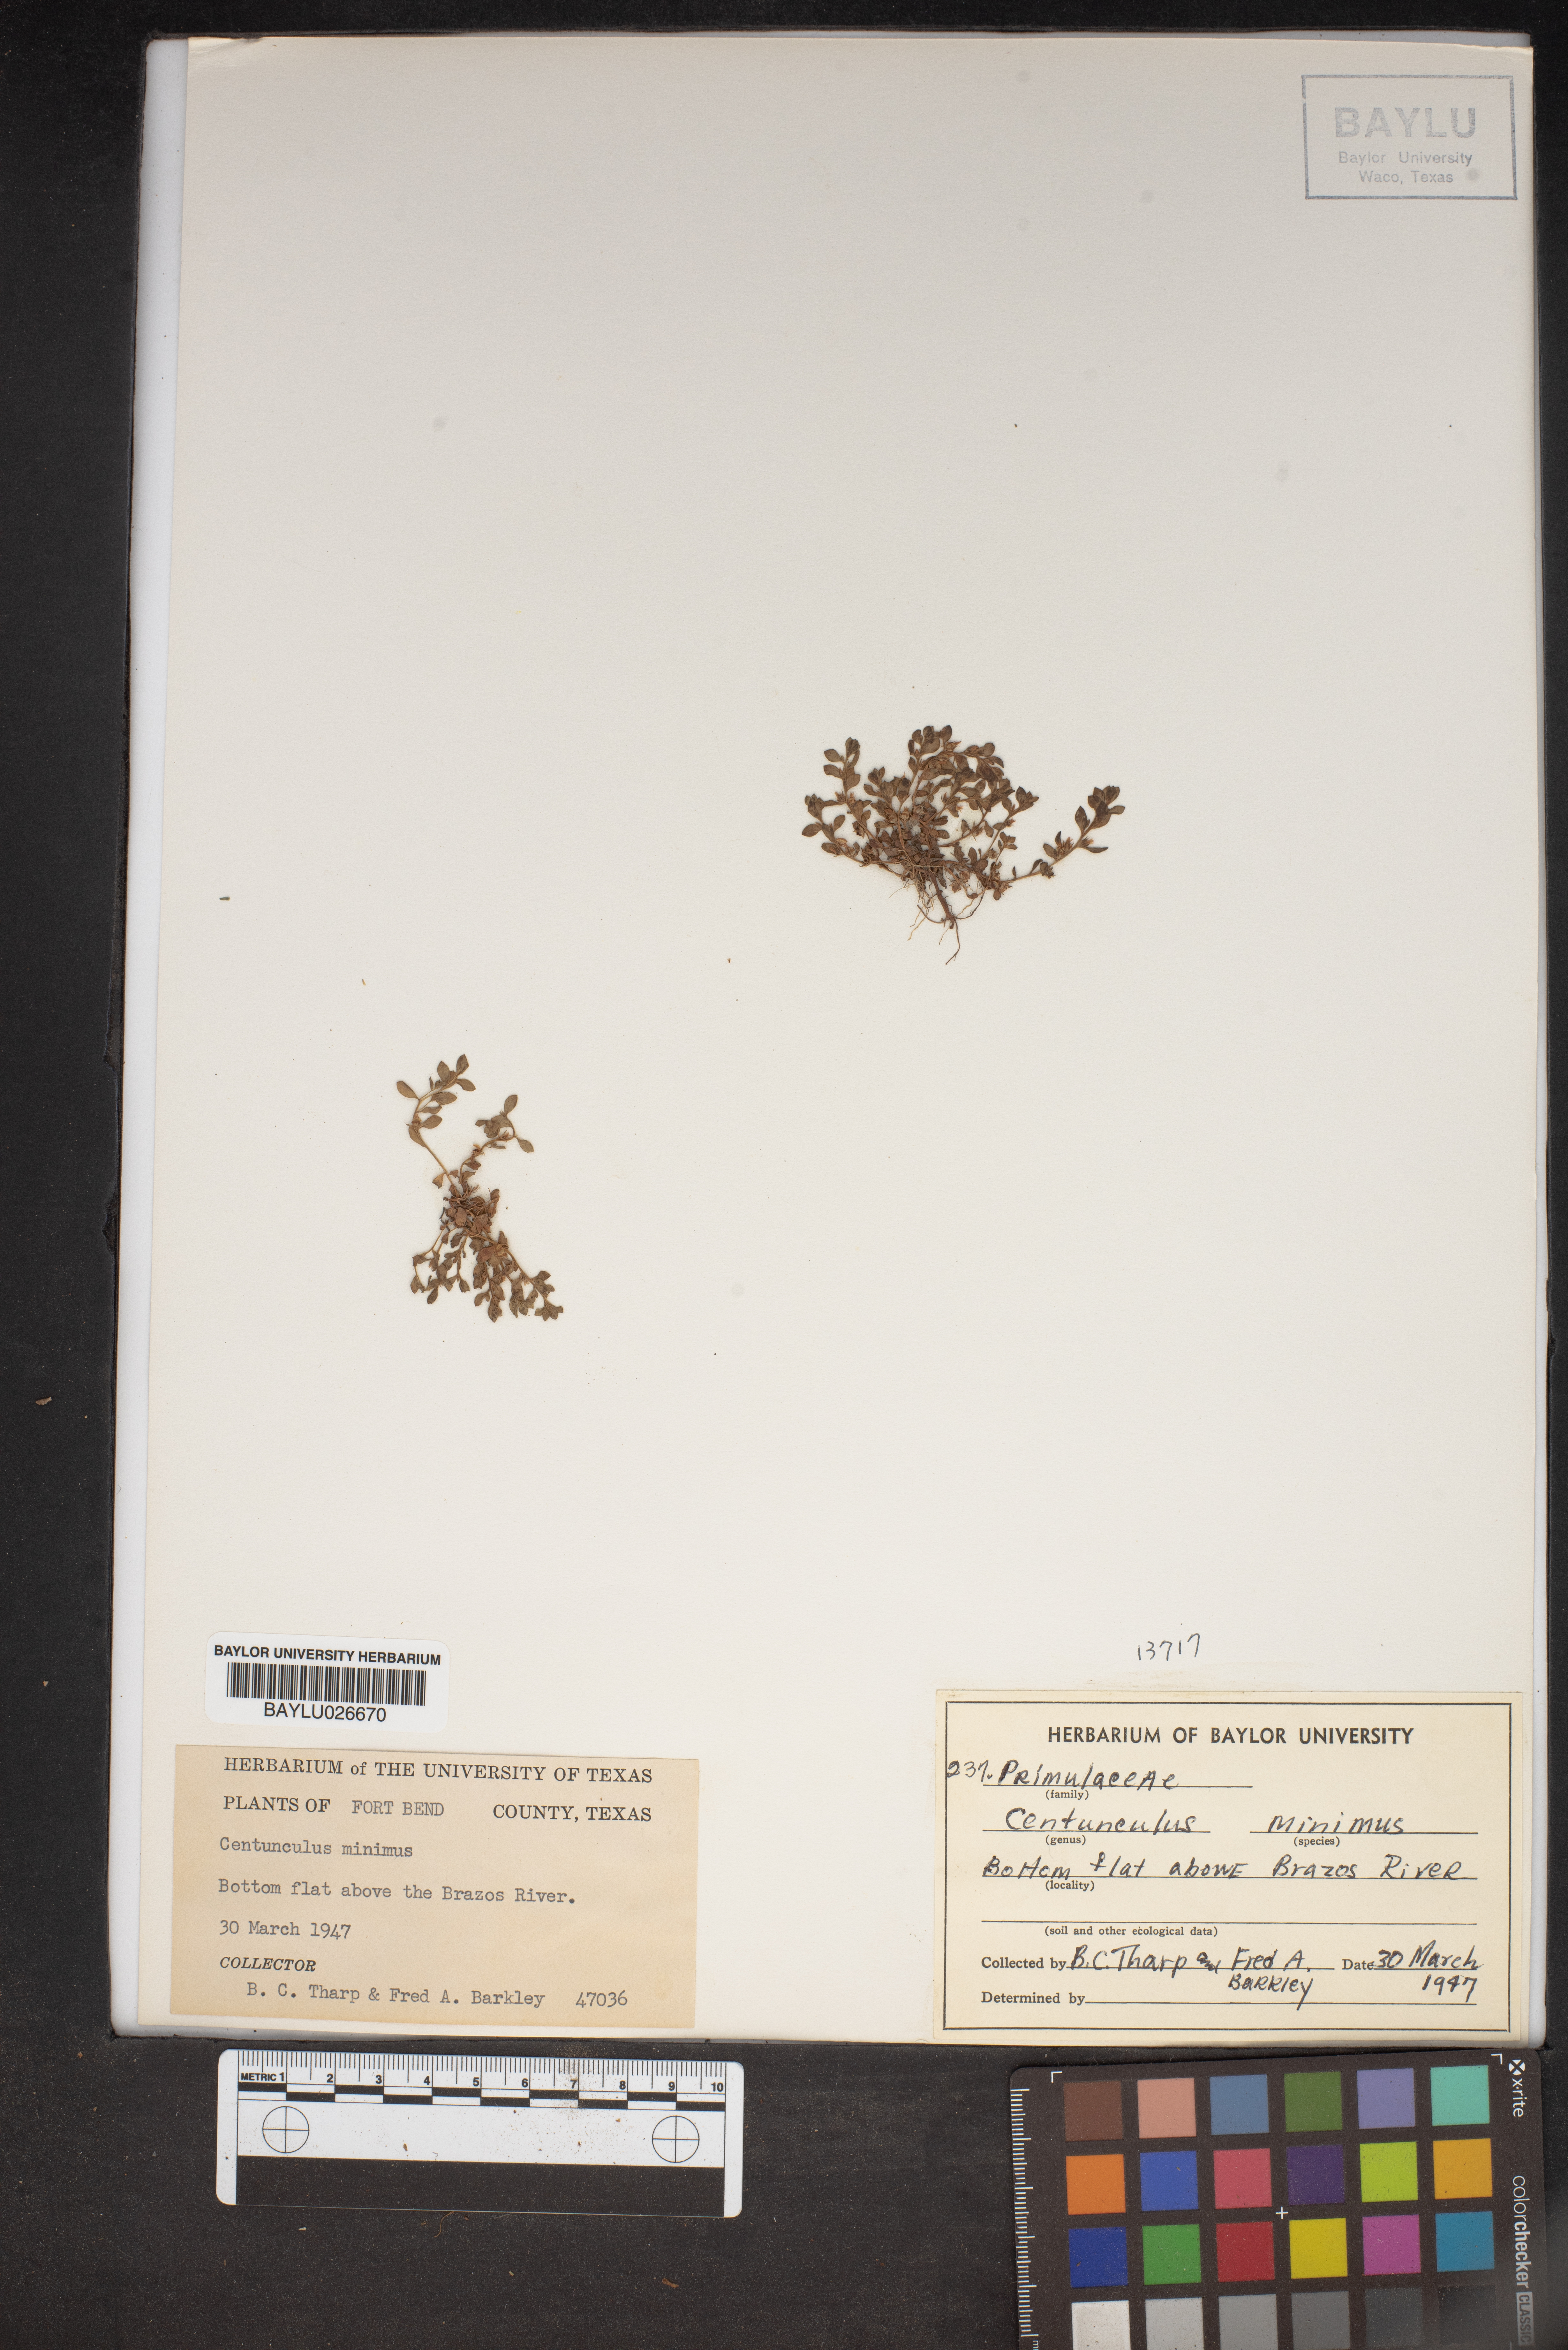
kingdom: Plantae
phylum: Tracheophyta
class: Magnoliopsida
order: Ericales
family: Primulaceae
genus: Lysimachia
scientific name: Lysimachia minima
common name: Chaffweed
